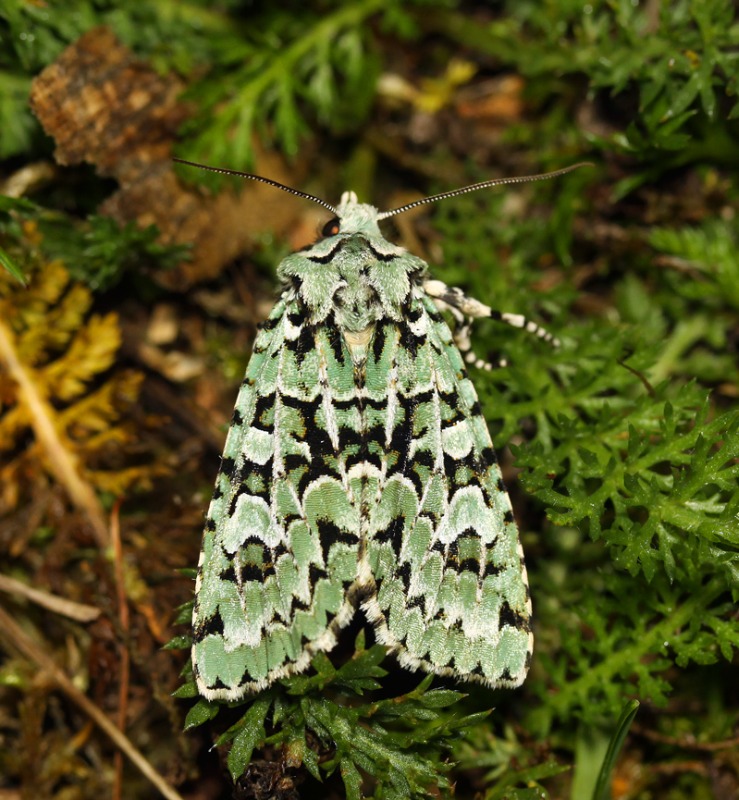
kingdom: Animalia
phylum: Arthropoda
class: Insecta
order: Lepidoptera
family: Noctuidae
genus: Griposia
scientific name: Griposia aprilina
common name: Aprilugle
